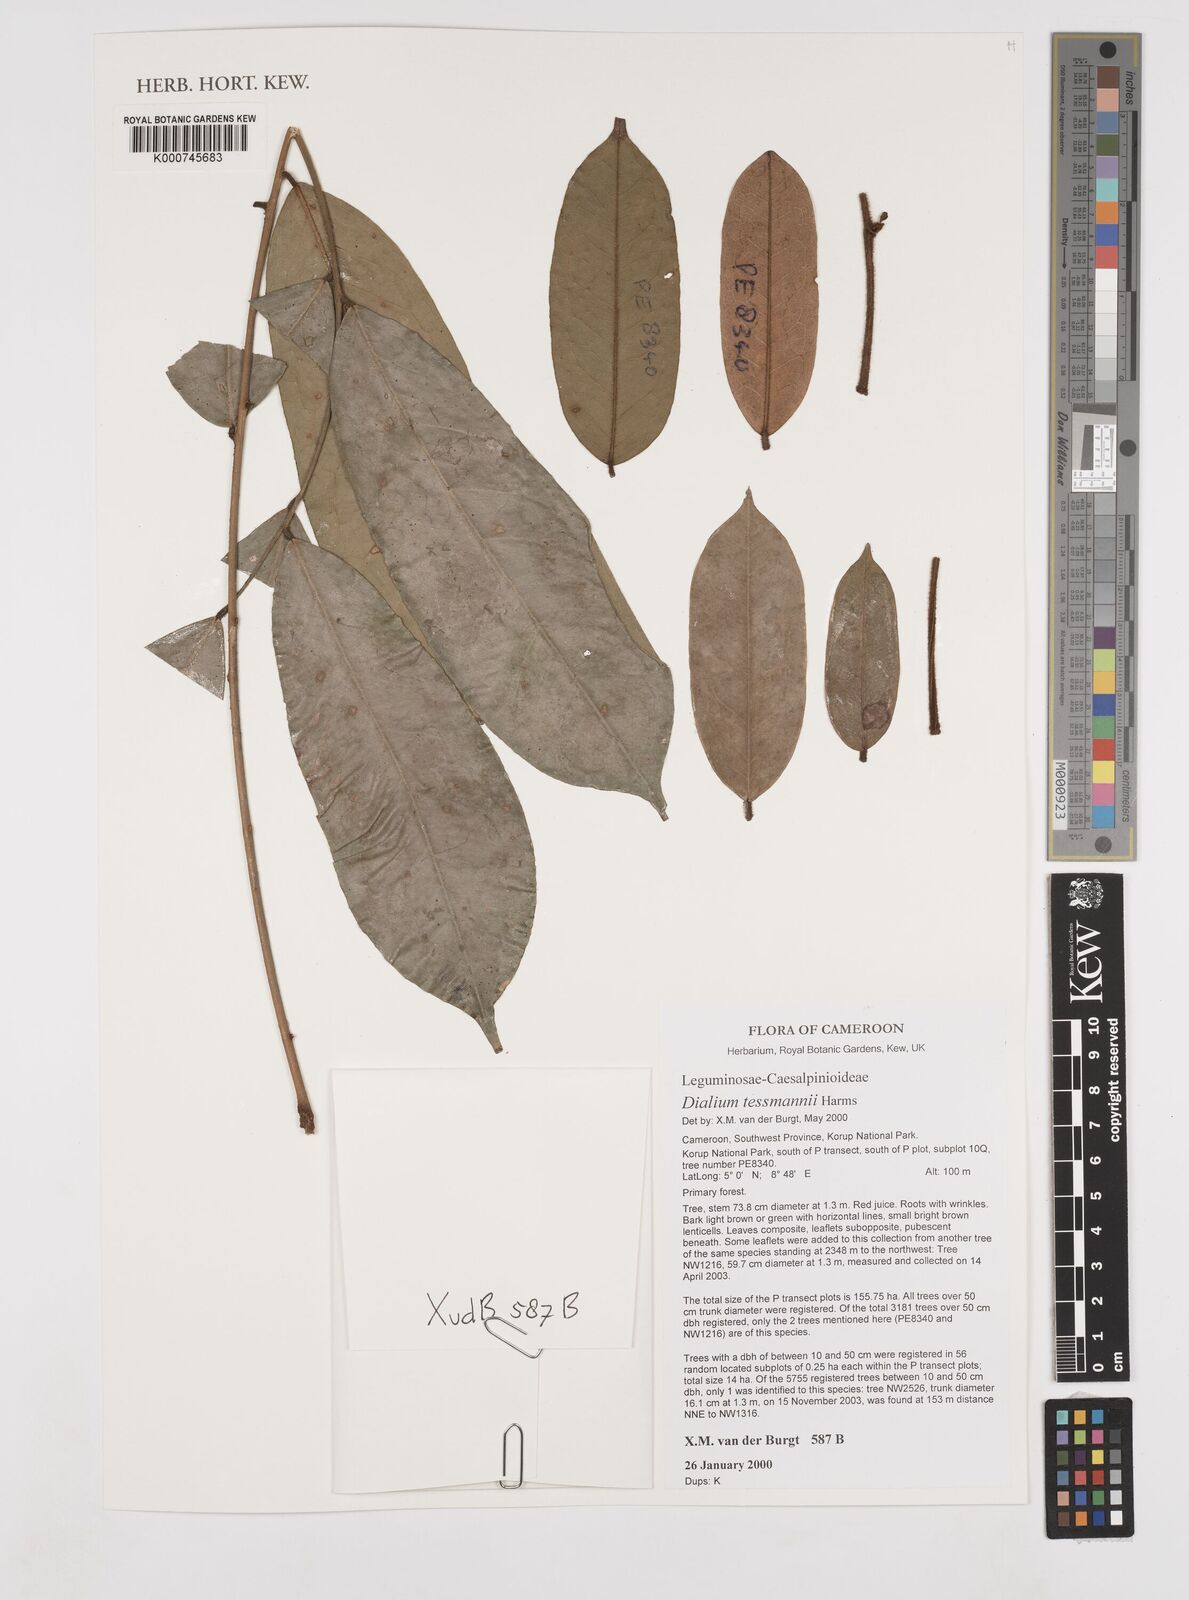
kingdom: Plantae
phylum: Tracheophyta
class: Magnoliopsida
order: Fabales
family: Fabaceae
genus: Dialium
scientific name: Dialium tessmannii
